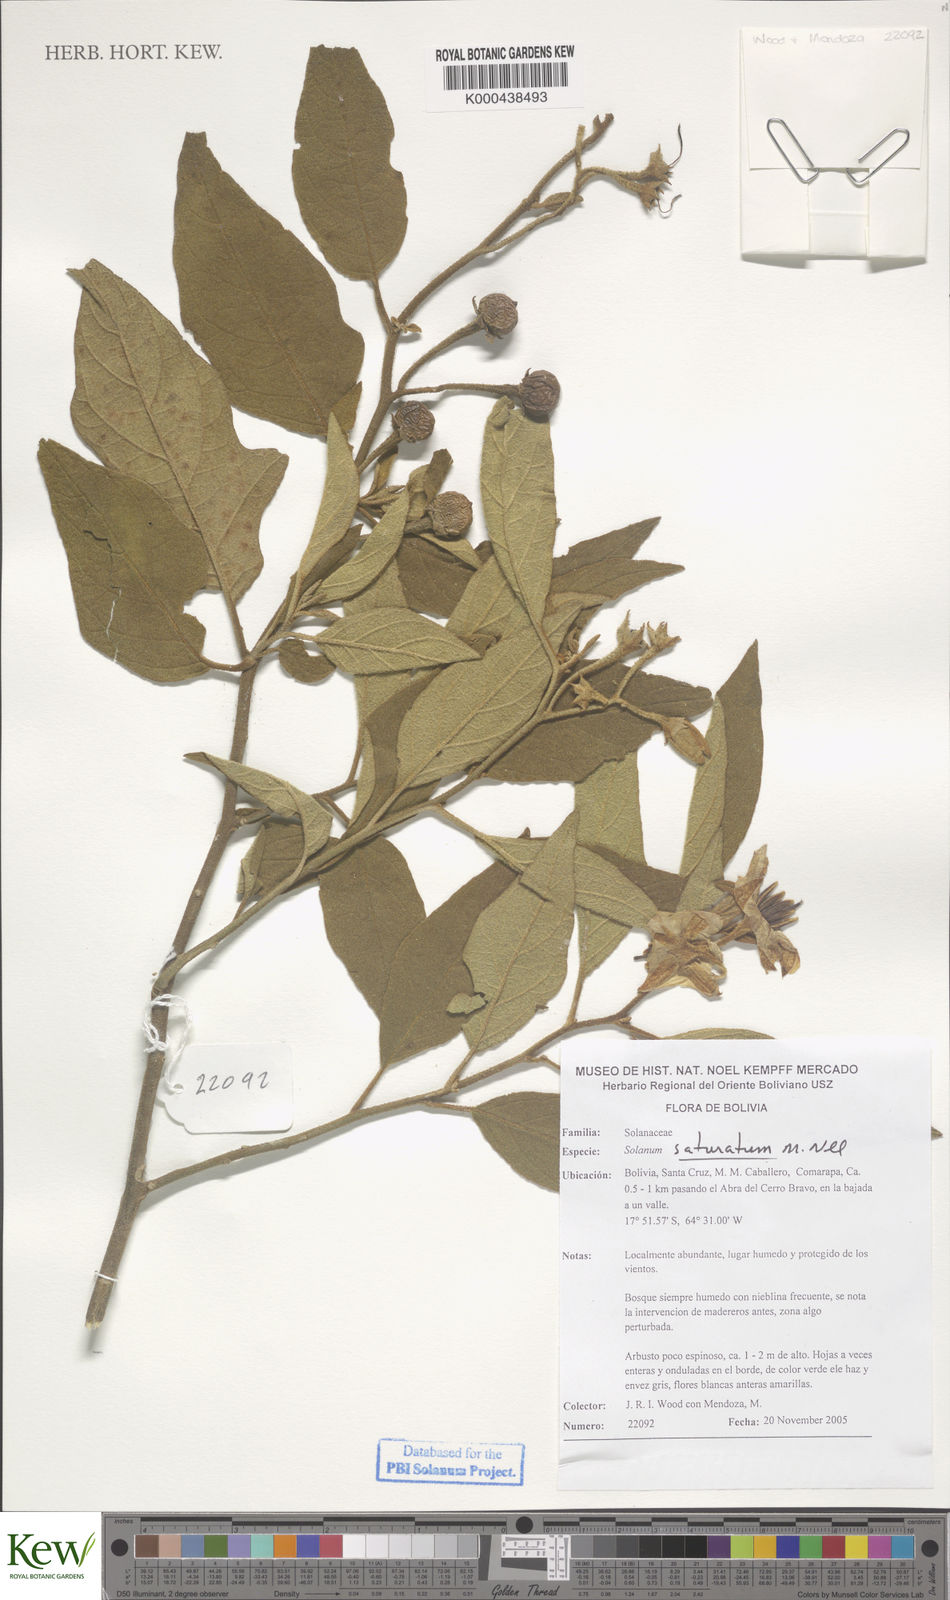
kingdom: Plantae
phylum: Tracheophyta
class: Magnoliopsida
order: Solanales
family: Solanaceae
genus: Solanum
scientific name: Solanum saturatum
